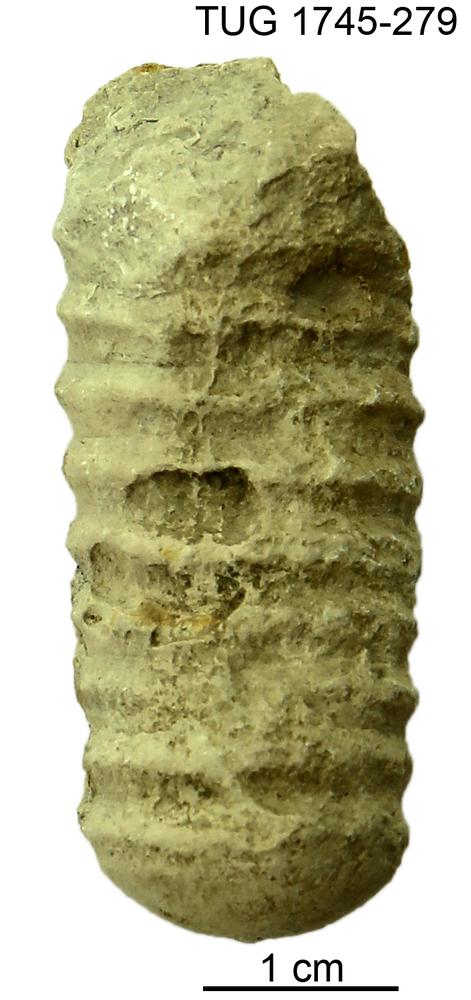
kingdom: Animalia
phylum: Mollusca
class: Cephalopoda
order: Orthocerida
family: Pseudorthoceratidae
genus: Spyroceras
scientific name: Spyroceras
